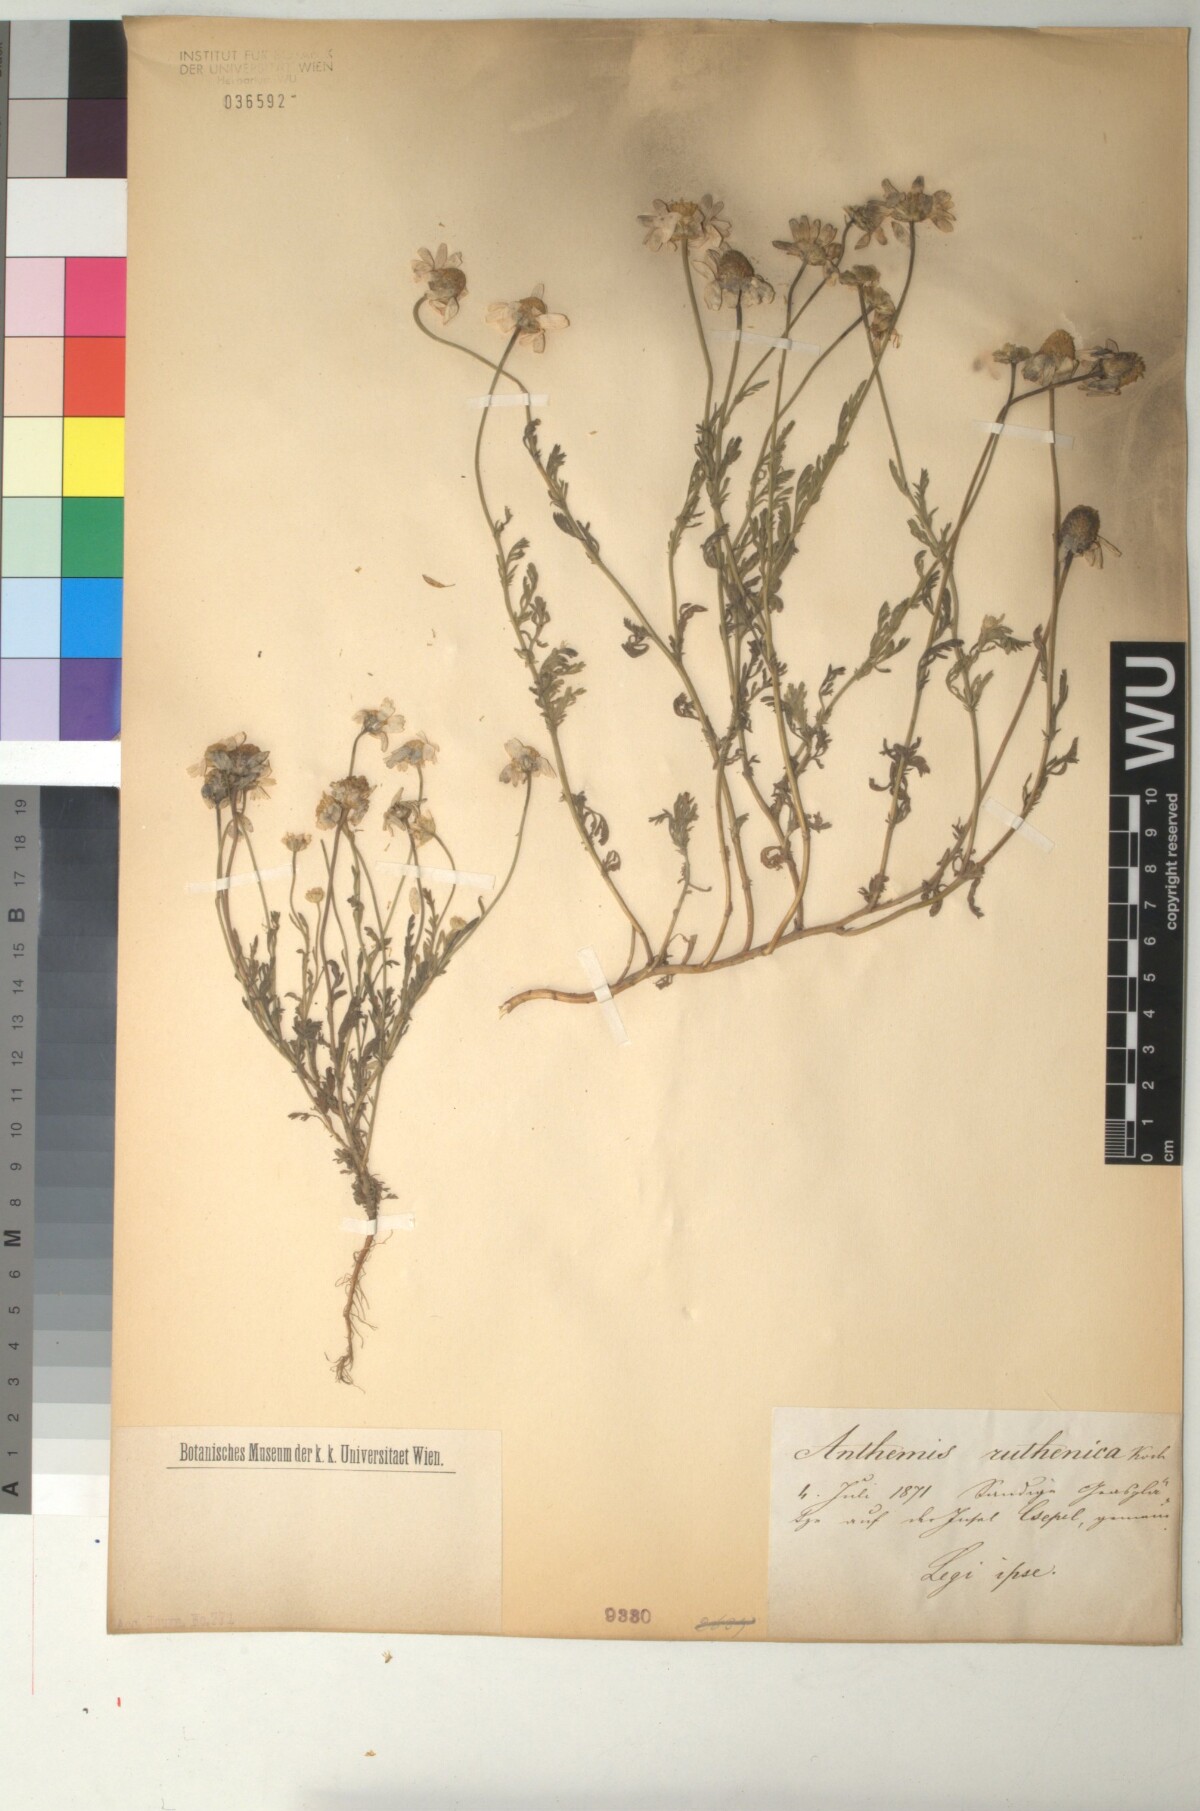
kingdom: Plantae
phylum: Tracheophyta
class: Magnoliopsida
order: Asterales
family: Asteraceae
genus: Anthemis
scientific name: Anthemis ruthenica
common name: Eastern chamomile
